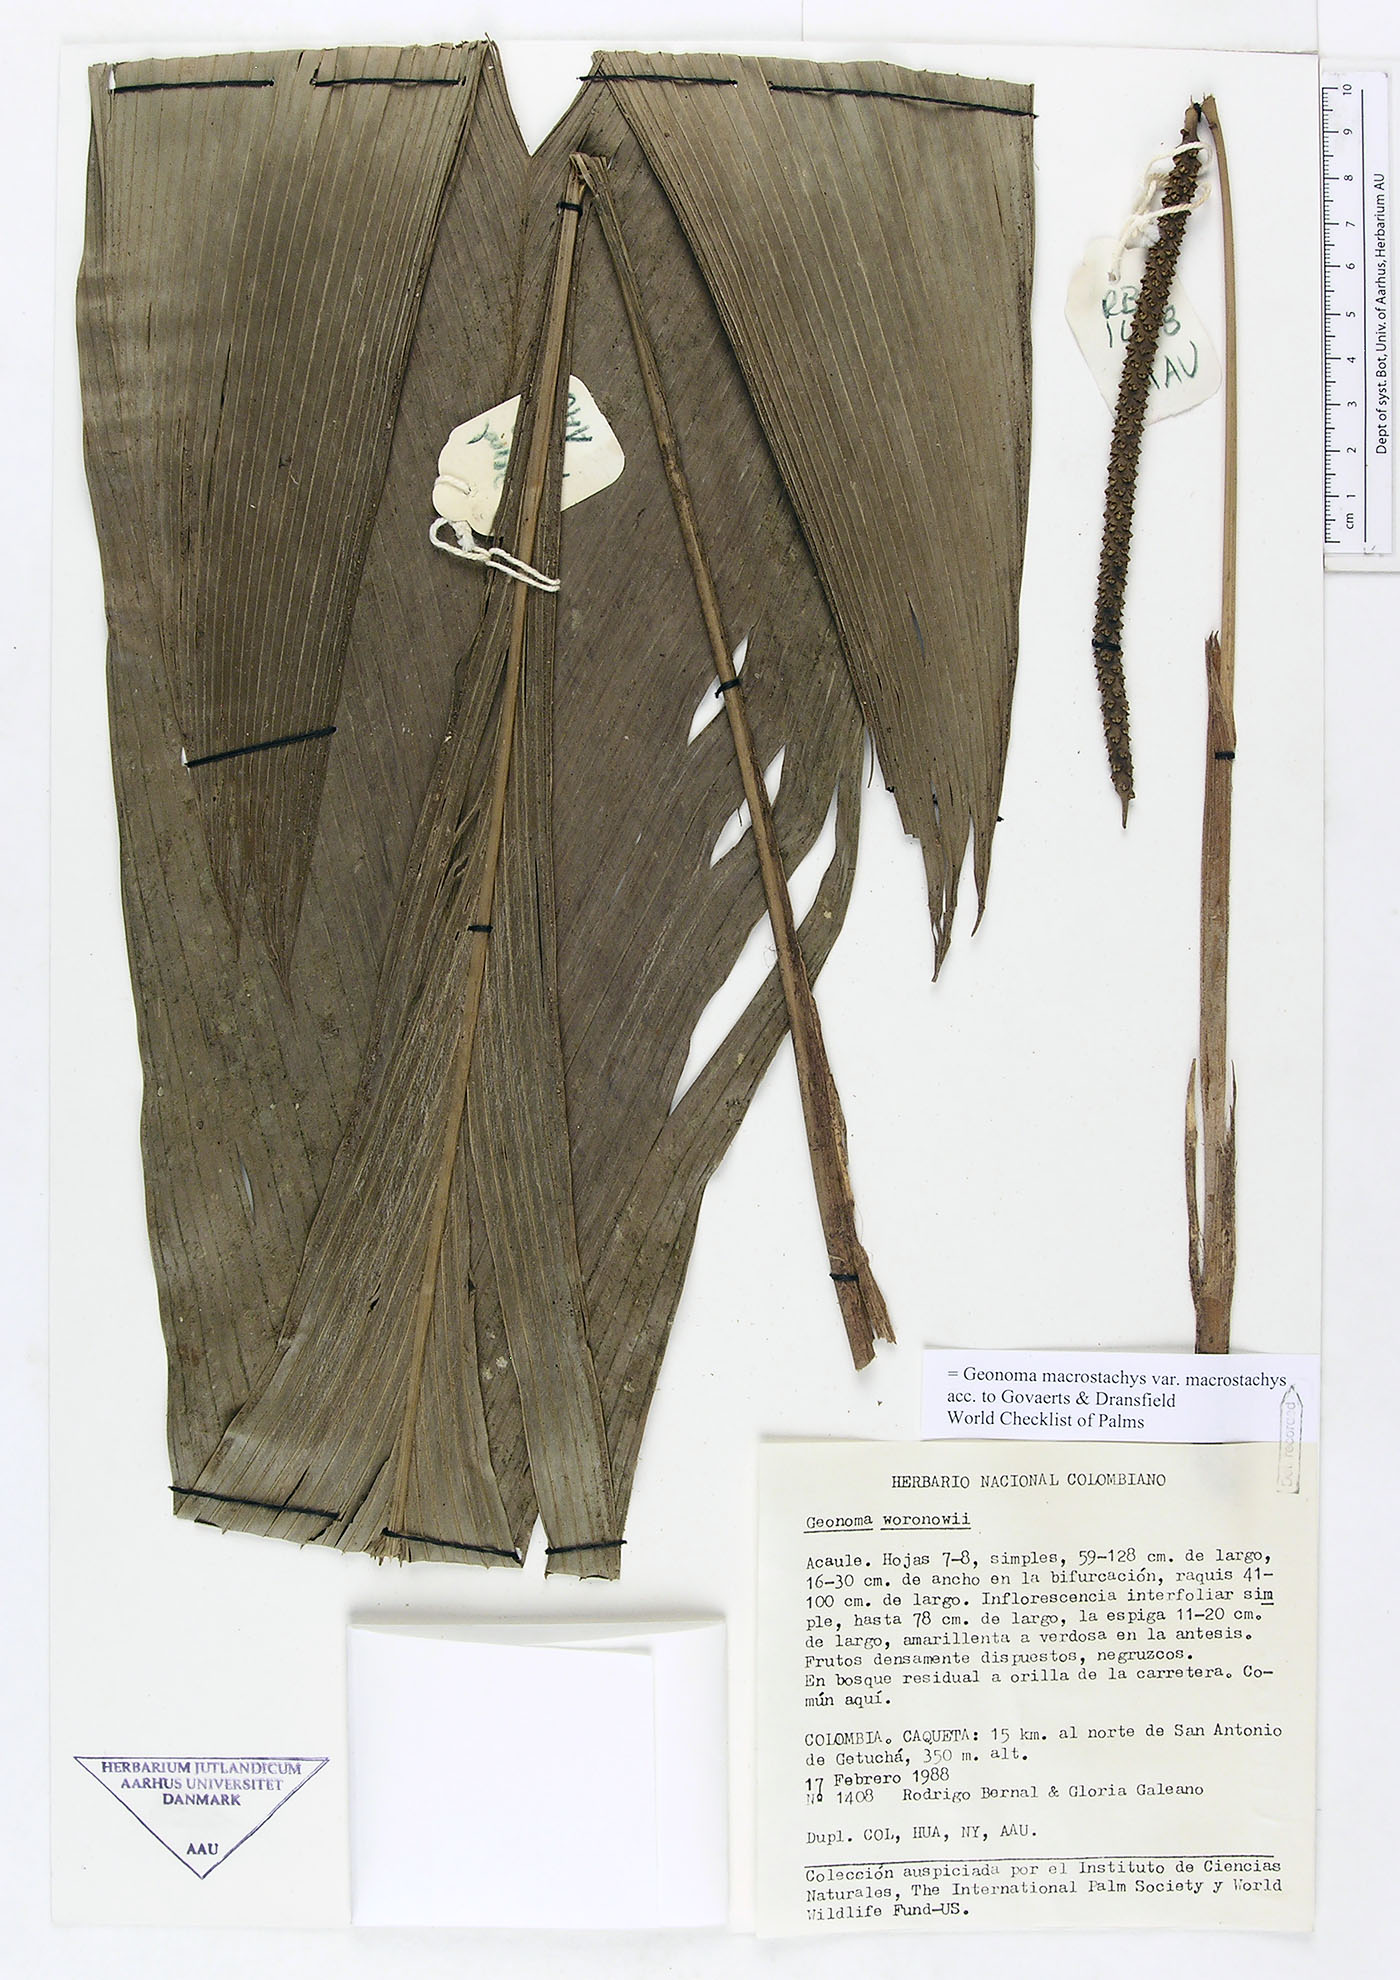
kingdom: Plantae
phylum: Tracheophyta
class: Liliopsida
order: Arecales
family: Arecaceae
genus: Geonoma
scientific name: Geonoma macrostachys
